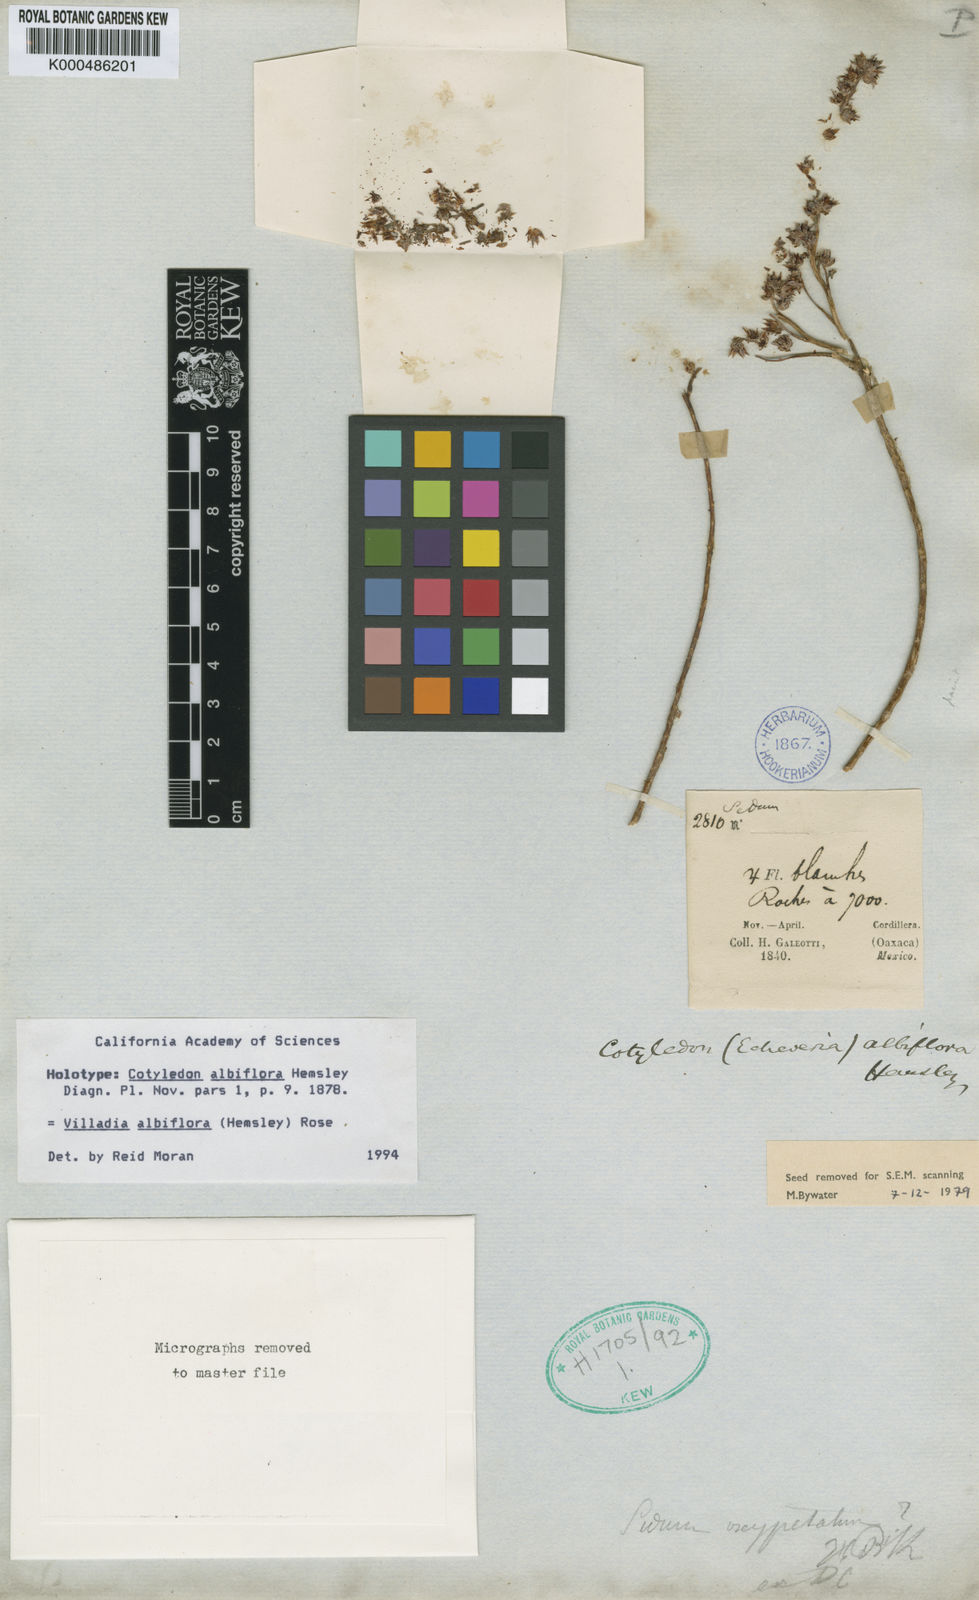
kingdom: Plantae
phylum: Tracheophyta
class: Magnoliopsida
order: Saxifragales
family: Crassulaceae
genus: Villadia
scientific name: Villadia albiflora
